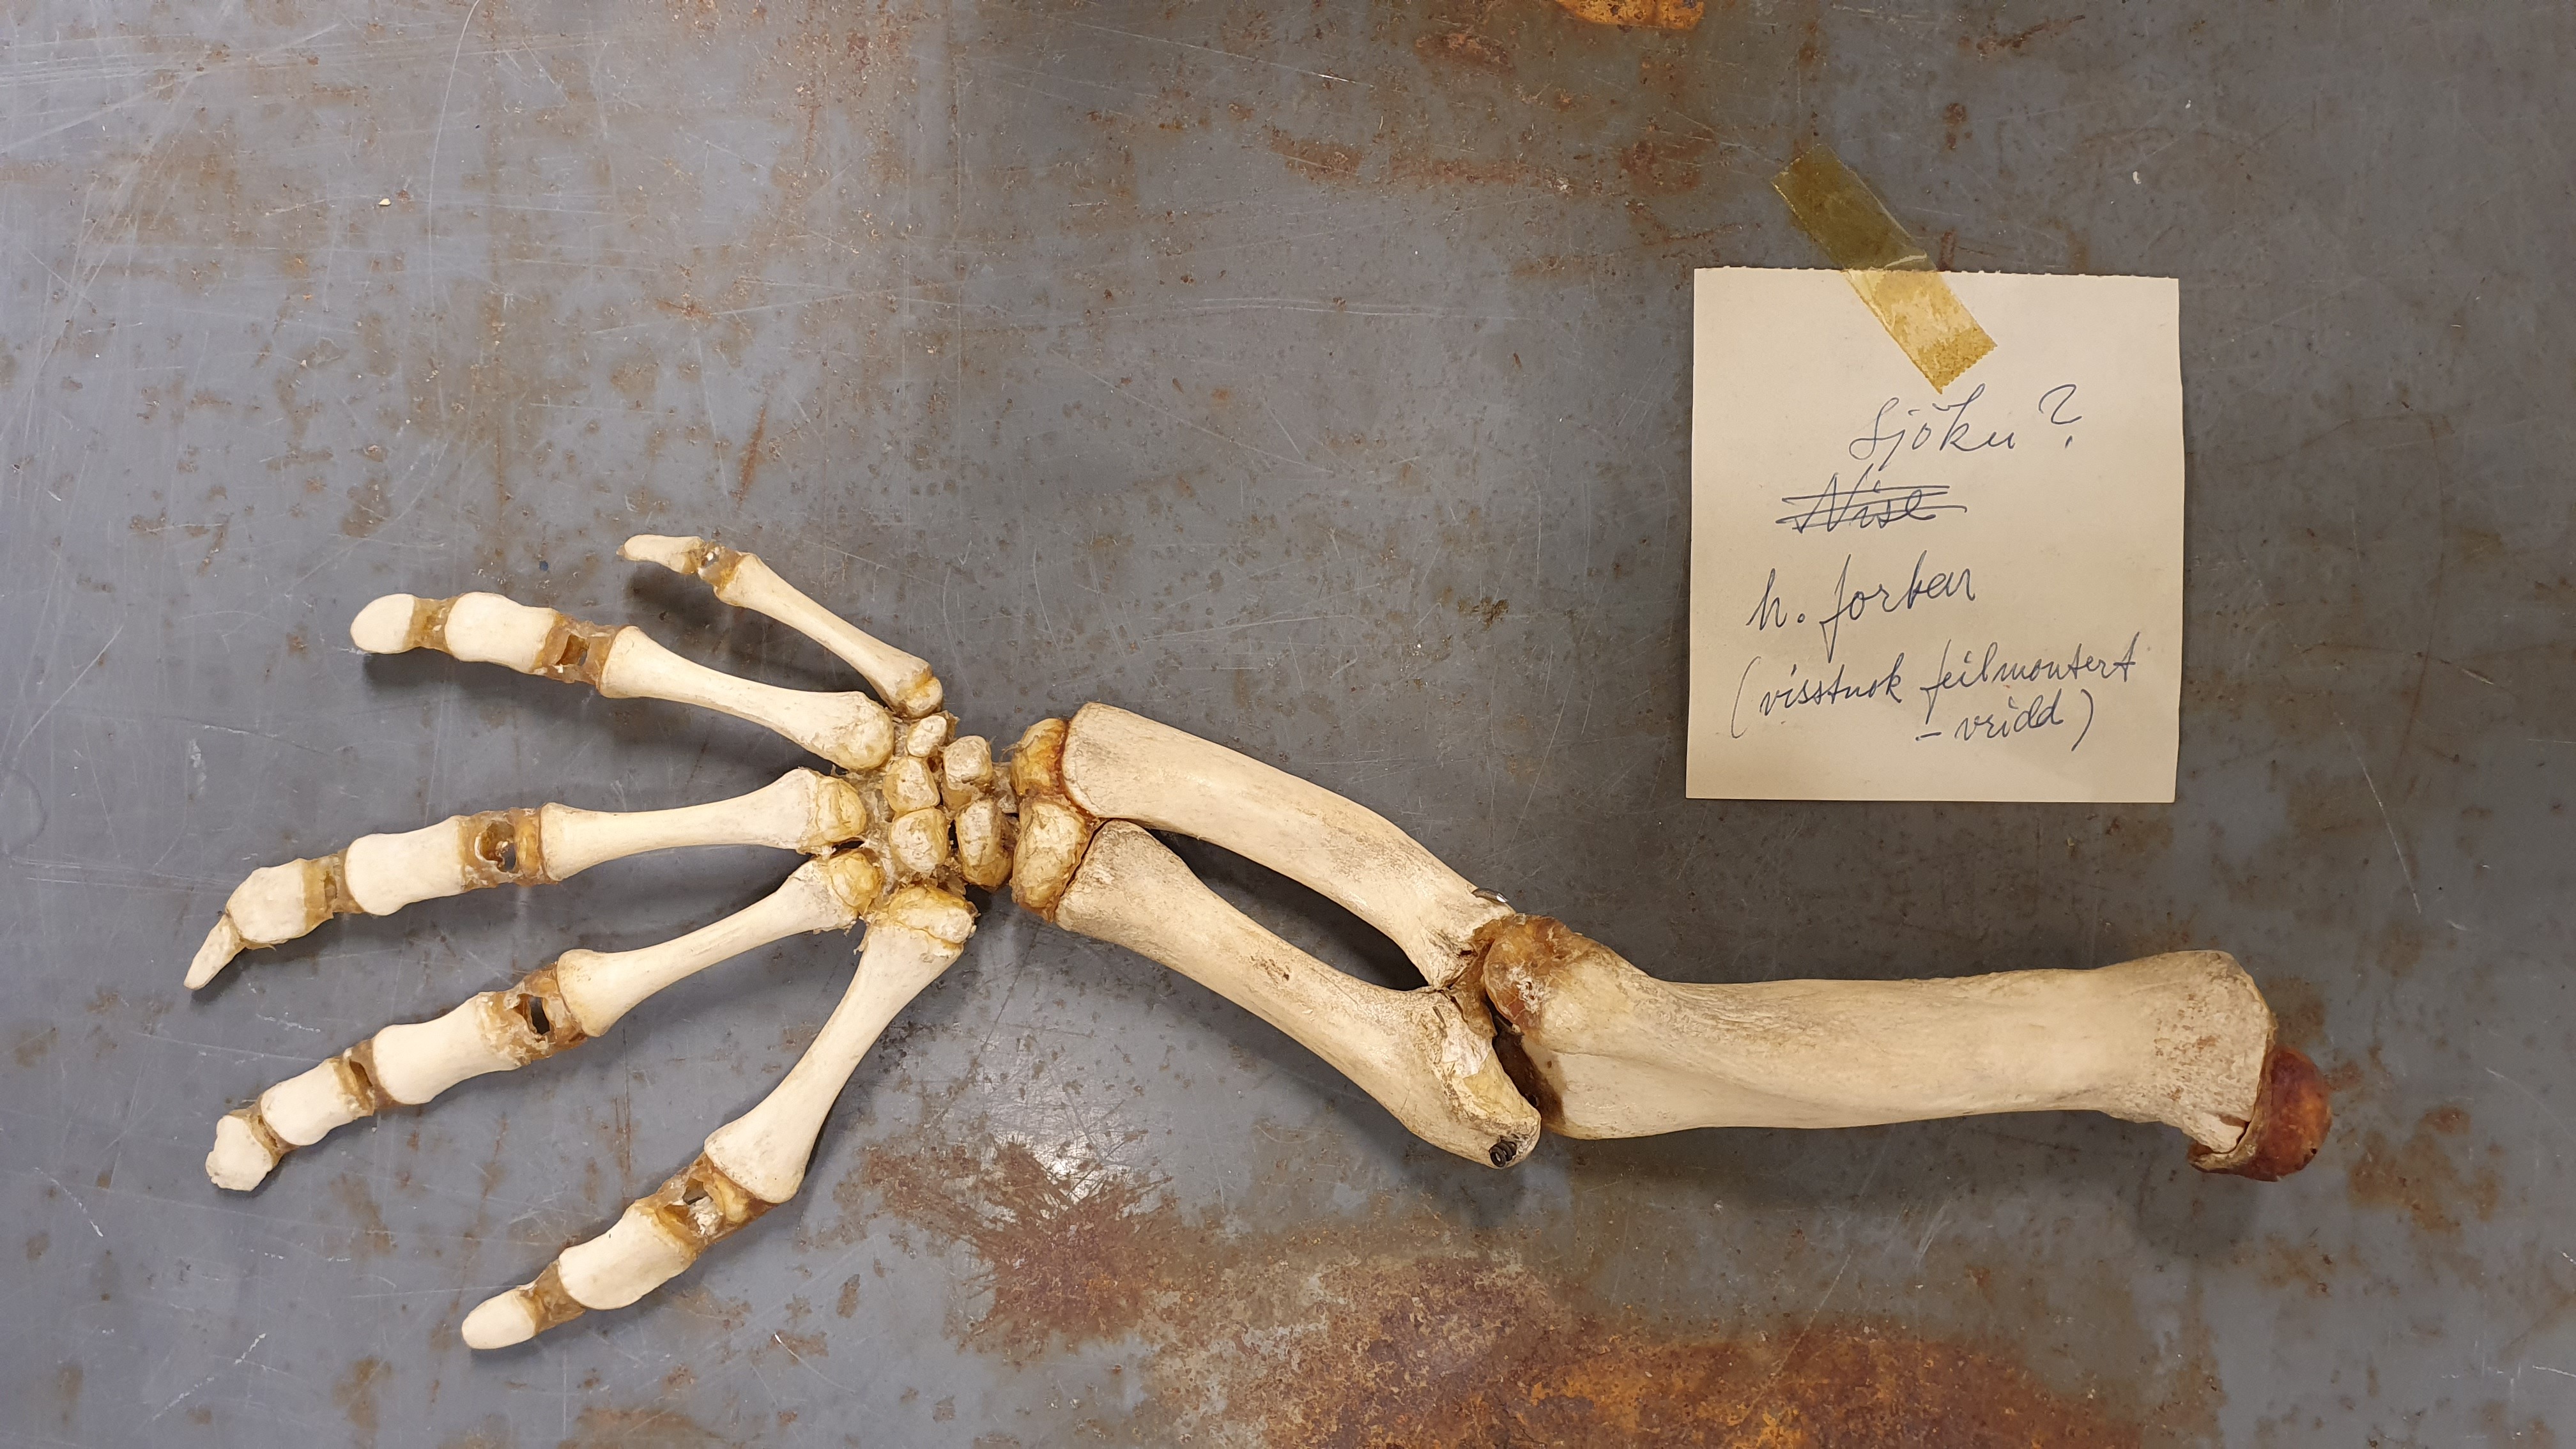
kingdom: Animalia
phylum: Chordata
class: Mammalia
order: Sirenia
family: Dugongidae
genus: Dugong
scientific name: Dugong dugon
